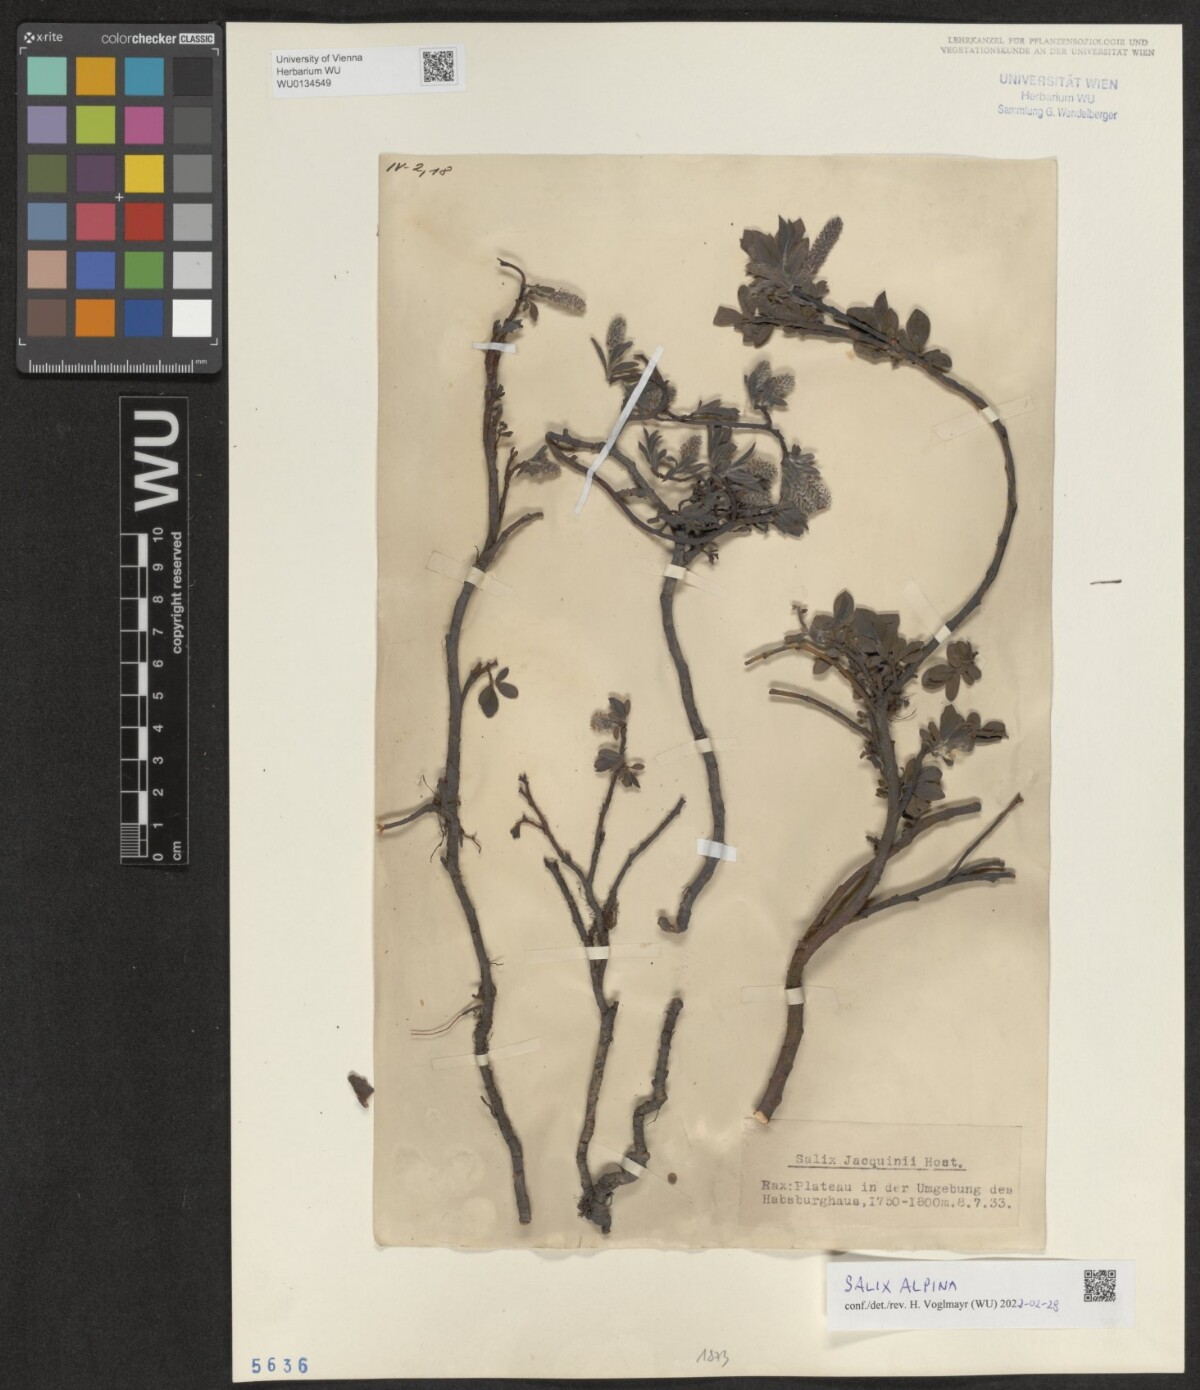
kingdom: Plantae
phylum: Tracheophyta
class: Magnoliopsida
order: Malpighiales
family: Salicaceae
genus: Salix
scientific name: Salix alpina
